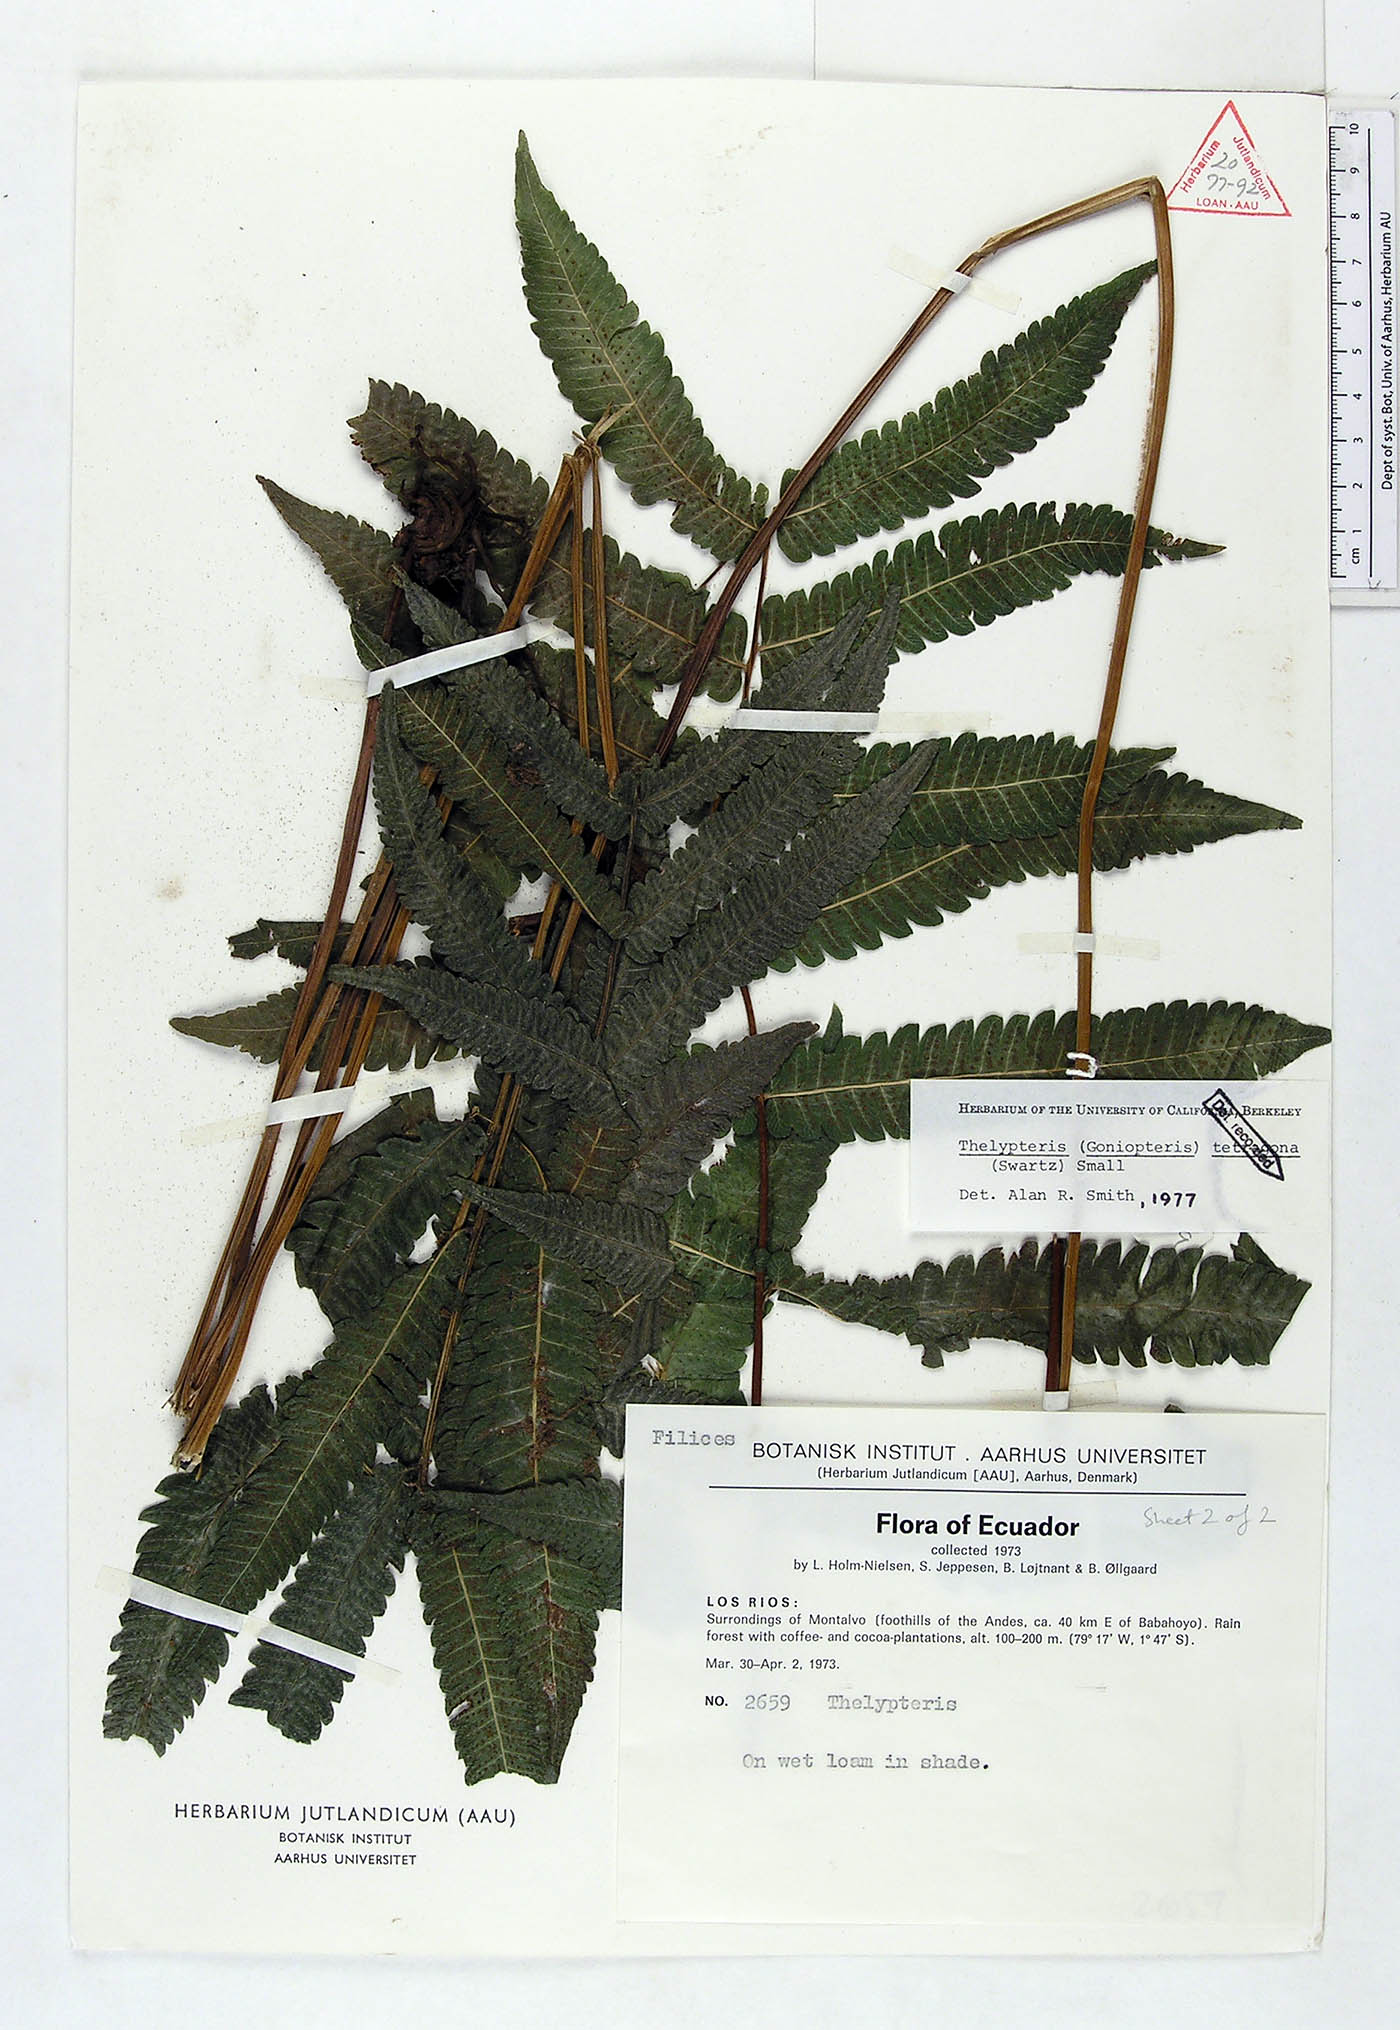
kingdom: Plantae
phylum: Tracheophyta
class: Polypodiopsida
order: Polypodiales
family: Thelypteridaceae
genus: Goniopteris
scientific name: Goniopteris tetragona
